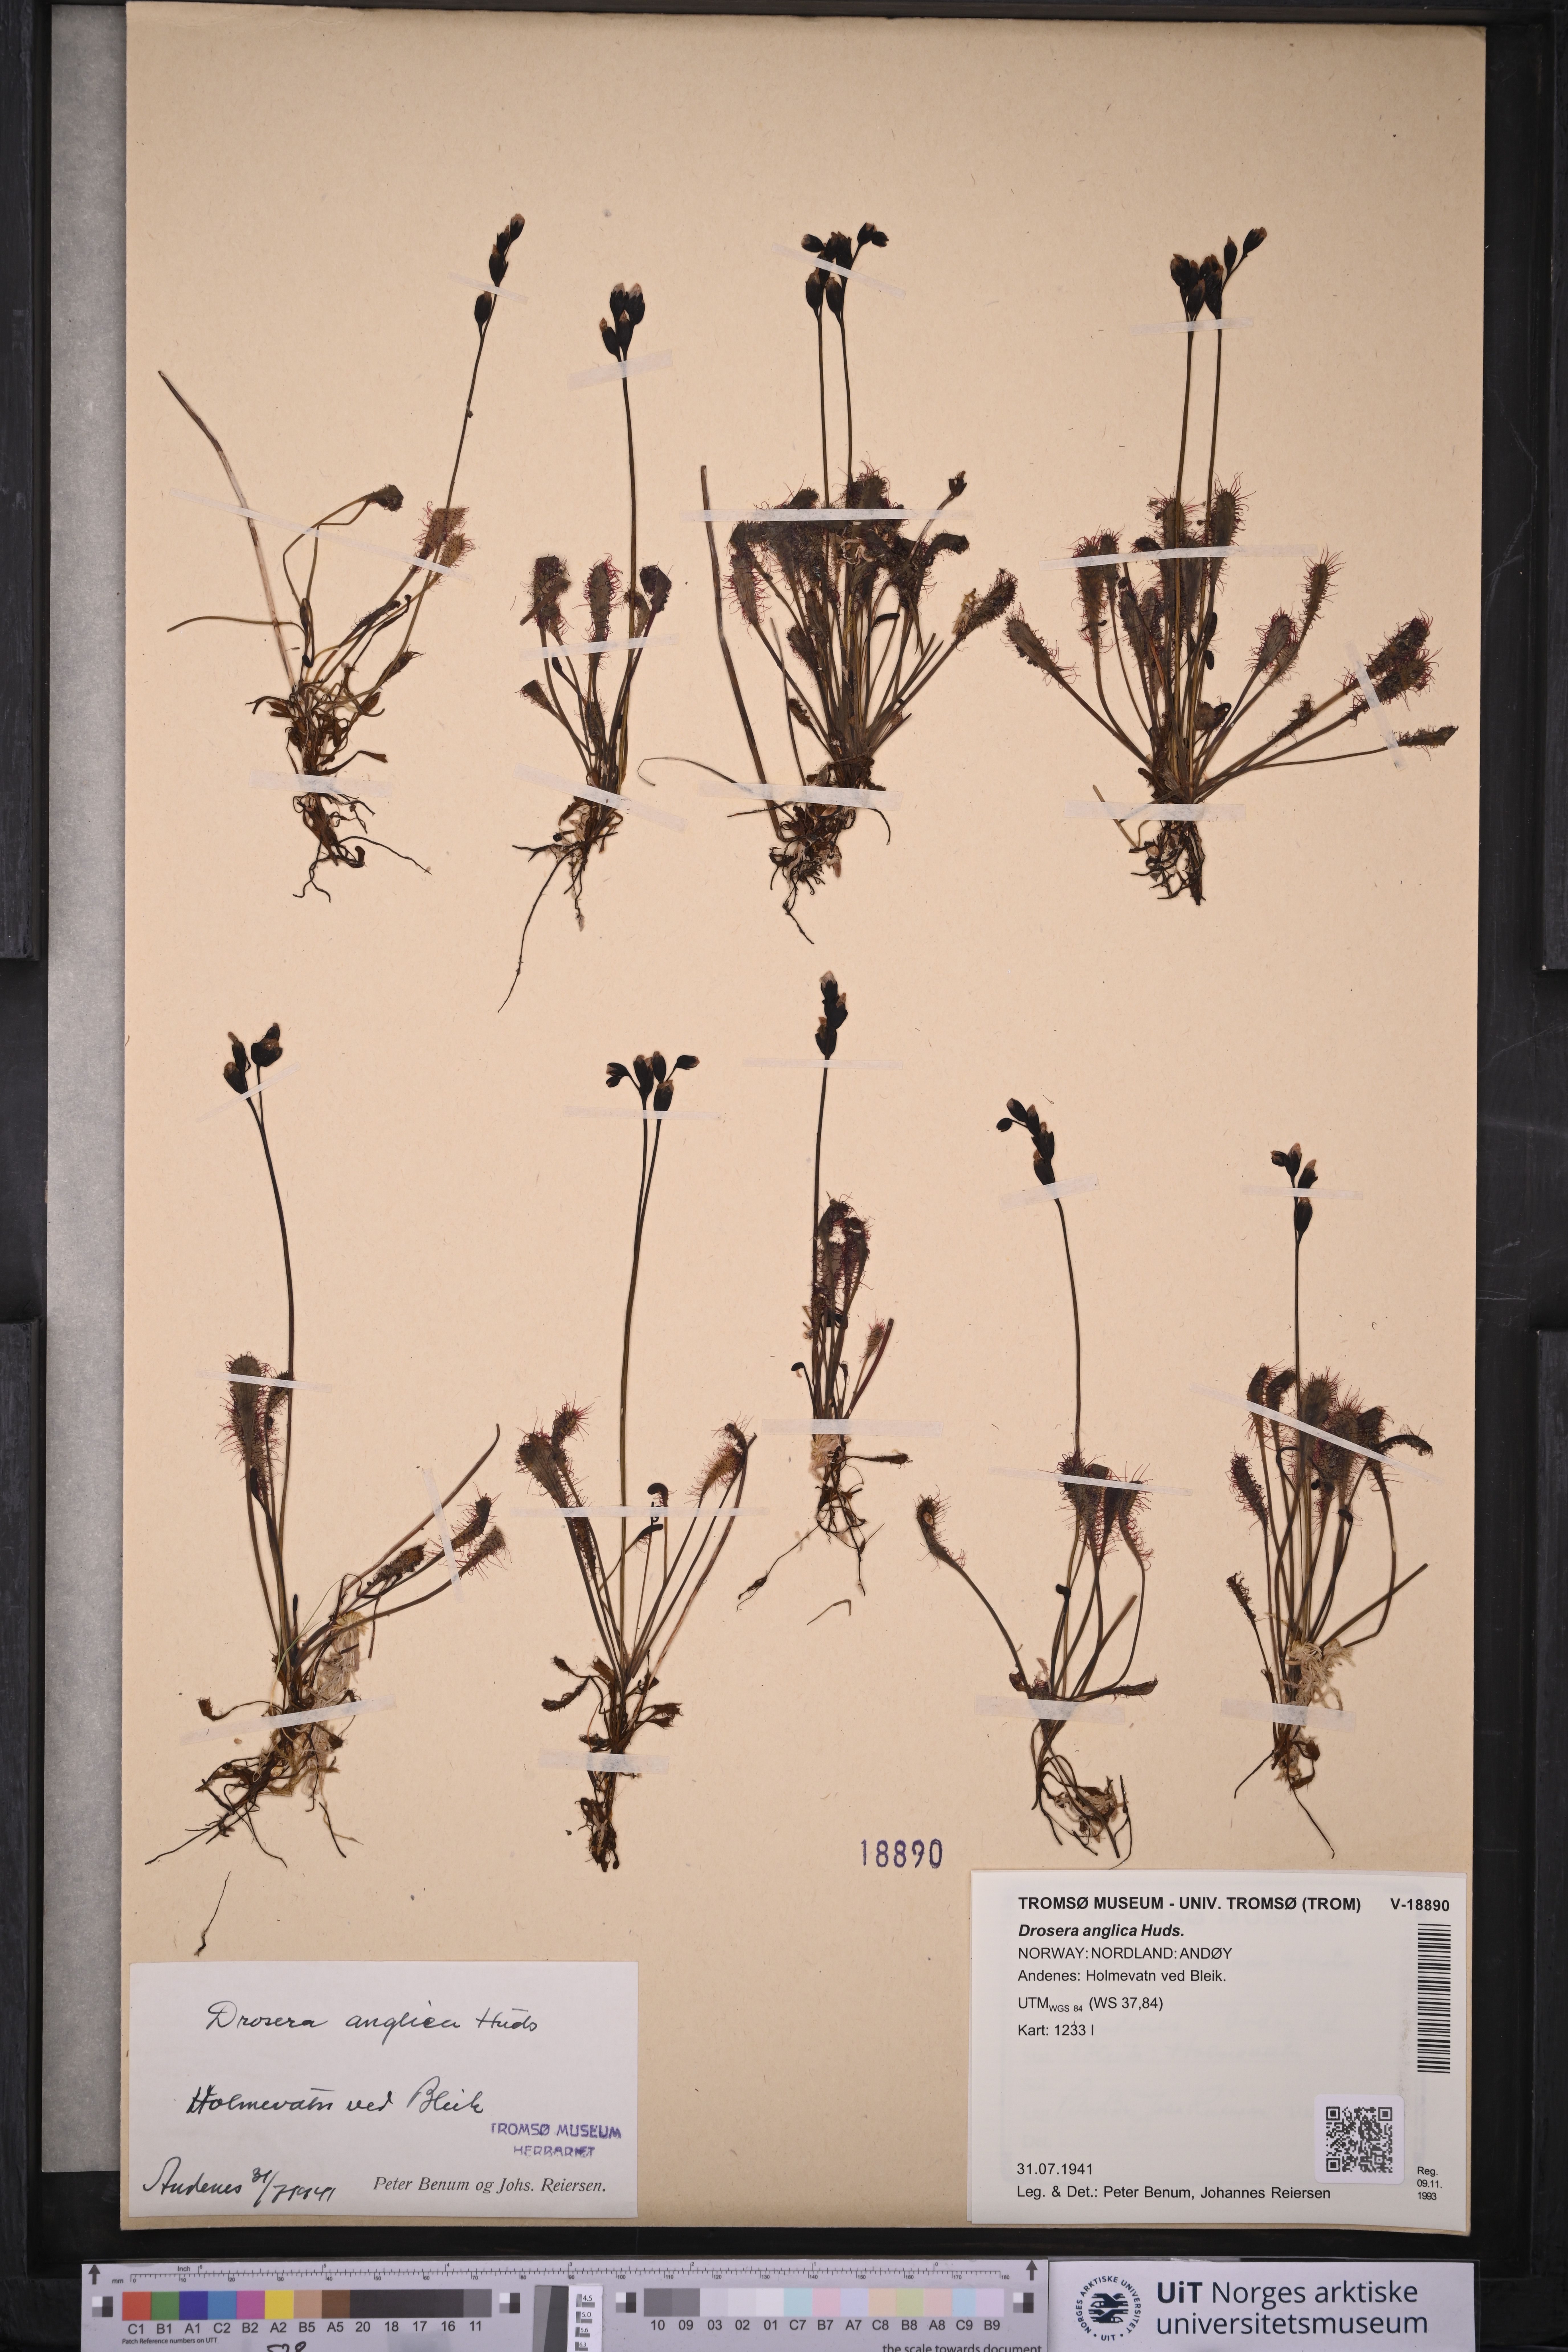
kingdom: Plantae
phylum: Tracheophyta
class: Magnoliopsida
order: Caryophyllales
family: Droseraceae
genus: Drosera
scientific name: Drosera anglica
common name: Great sundew
